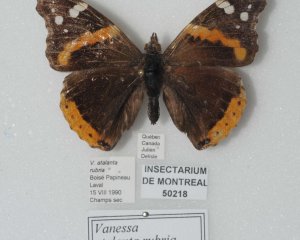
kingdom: Animalia
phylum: Arthropoda
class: Insecta
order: Lepidoptera
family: Nymphalidae
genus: Vanessa
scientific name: Vanessa atalanta
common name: Red Admiral
